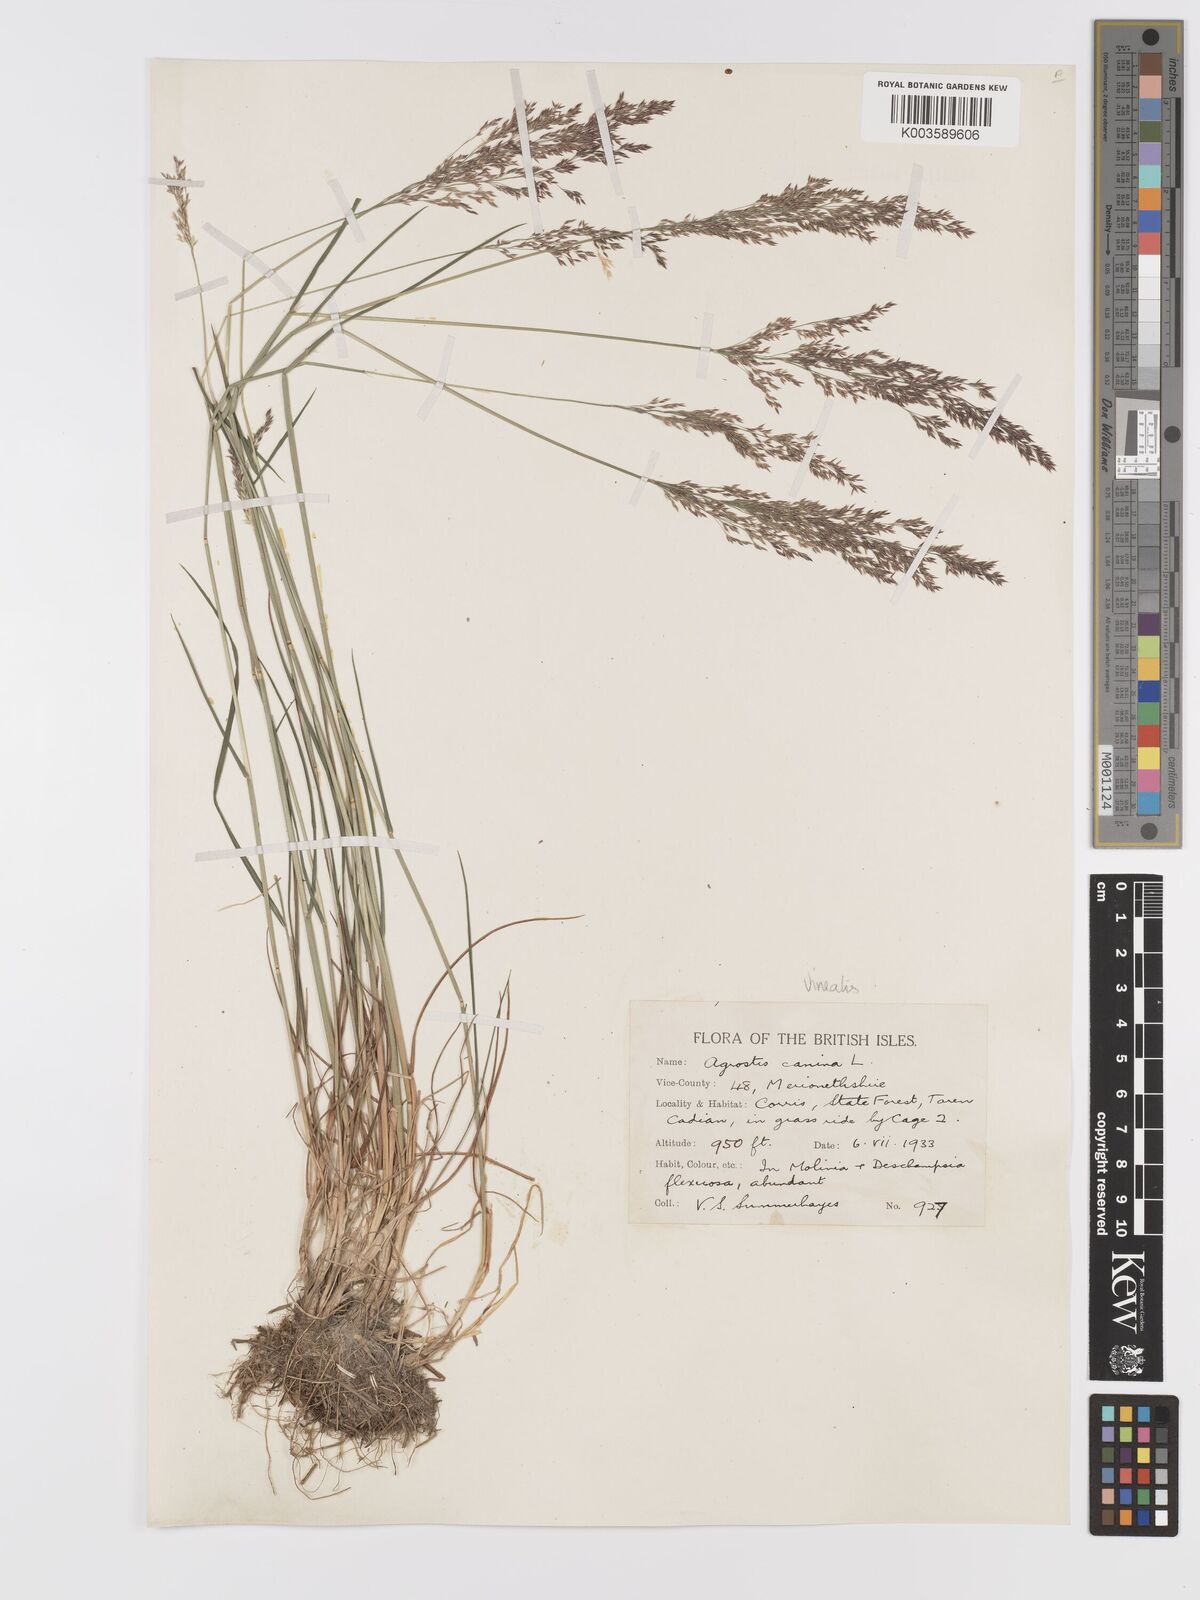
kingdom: Plantae
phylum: Tracheophyta
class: Liliopsida
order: Poales
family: Poaceae
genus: Agrostis
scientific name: Agrostis
